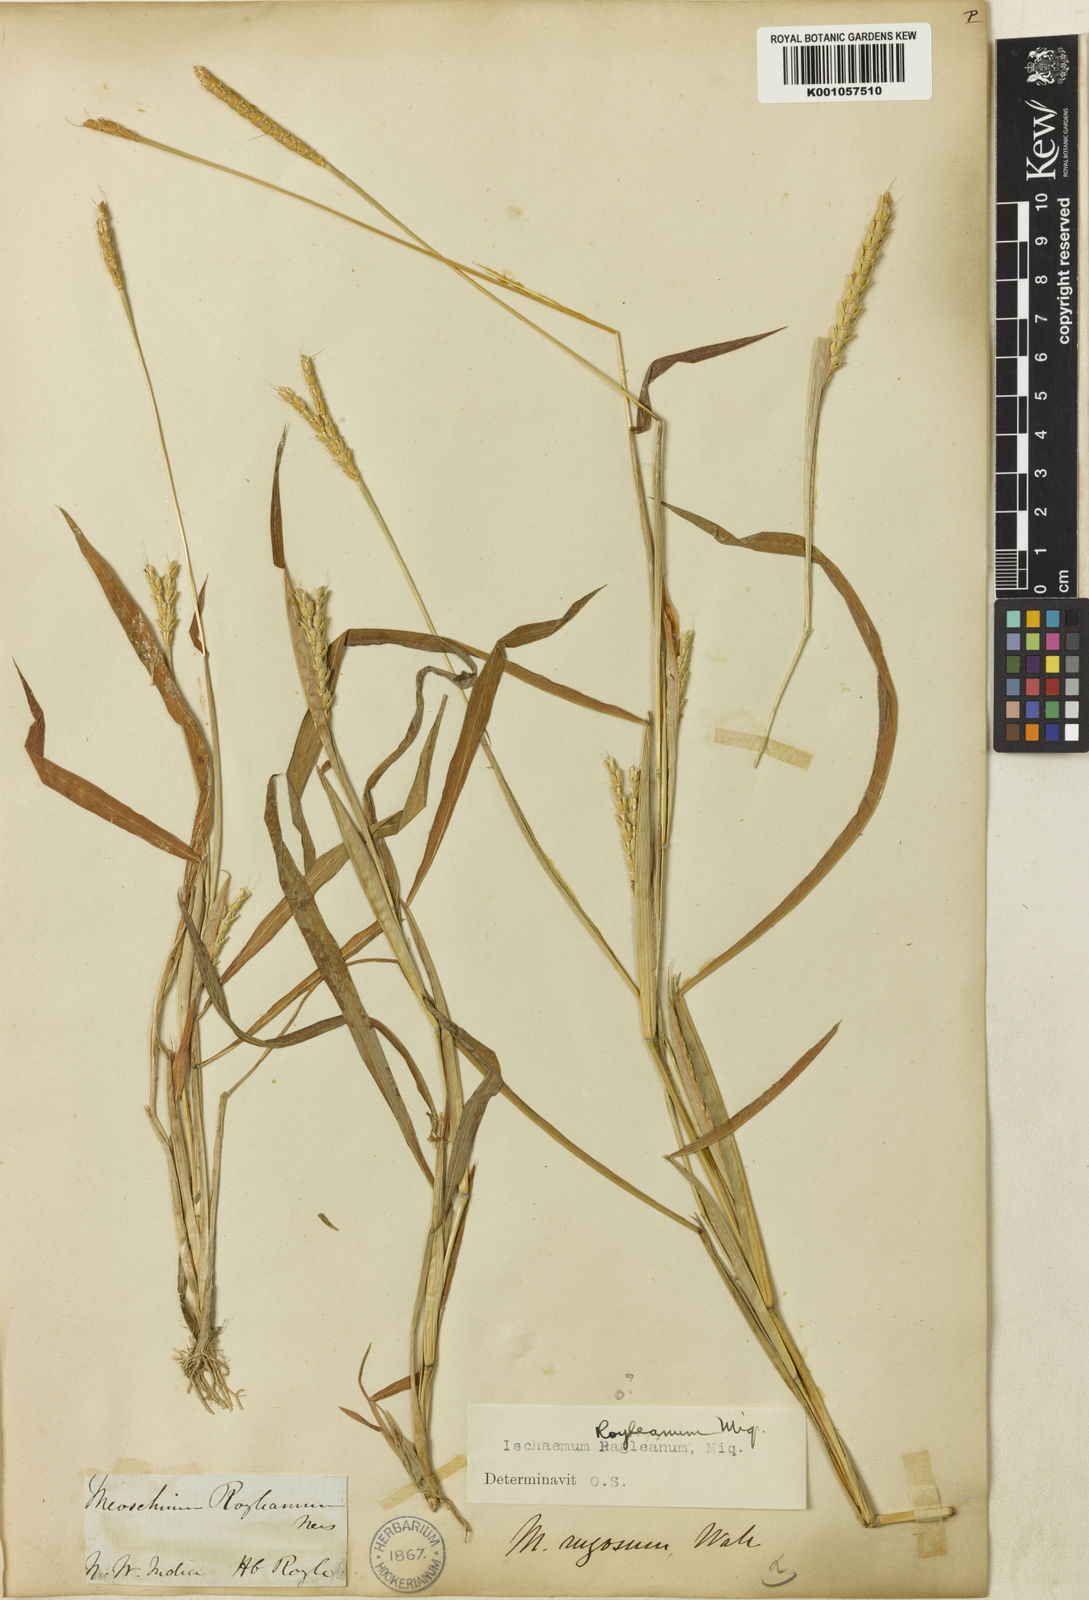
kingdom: Plantae
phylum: Tracheophyta
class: Liliopsida
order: Poales
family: Poaceae
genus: Ischaemum
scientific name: Ischaemum rugosum
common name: Saramatta grass
